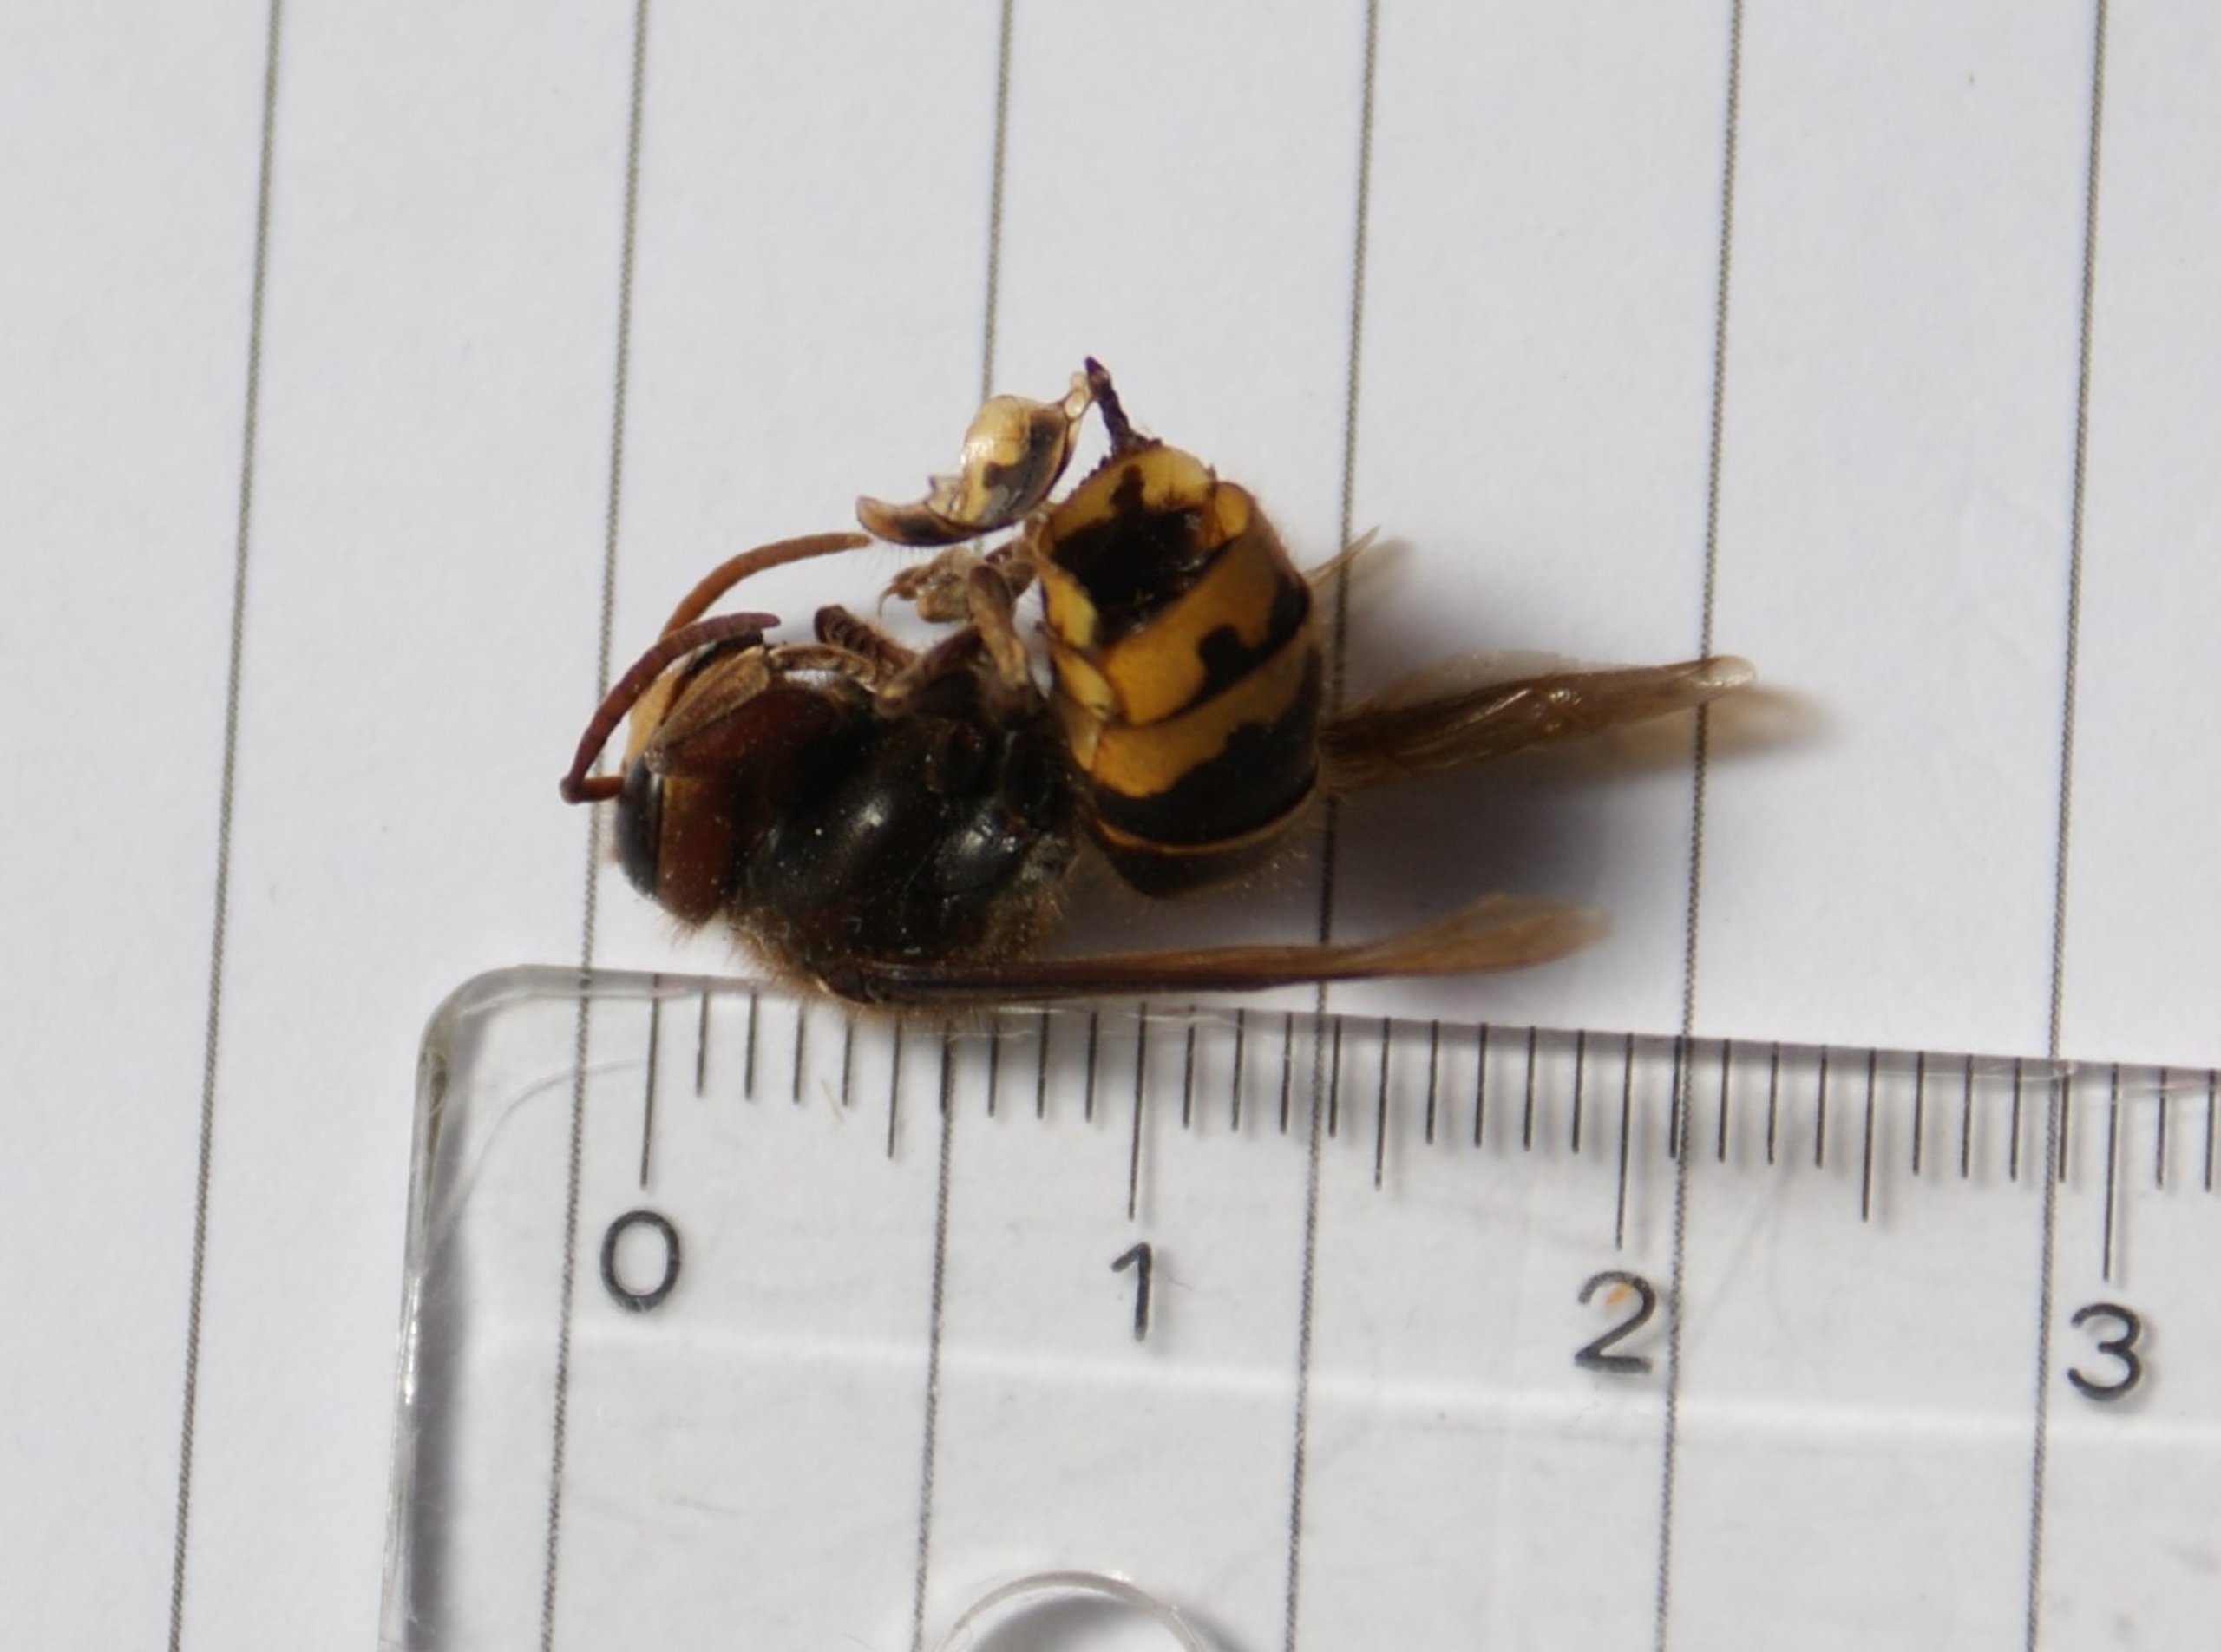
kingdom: Animalia
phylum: Arthropoda
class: Insecta
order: Hymenoptera
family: Vespidae
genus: Vespa
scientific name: Vespa crabro
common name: Stor gedehams
